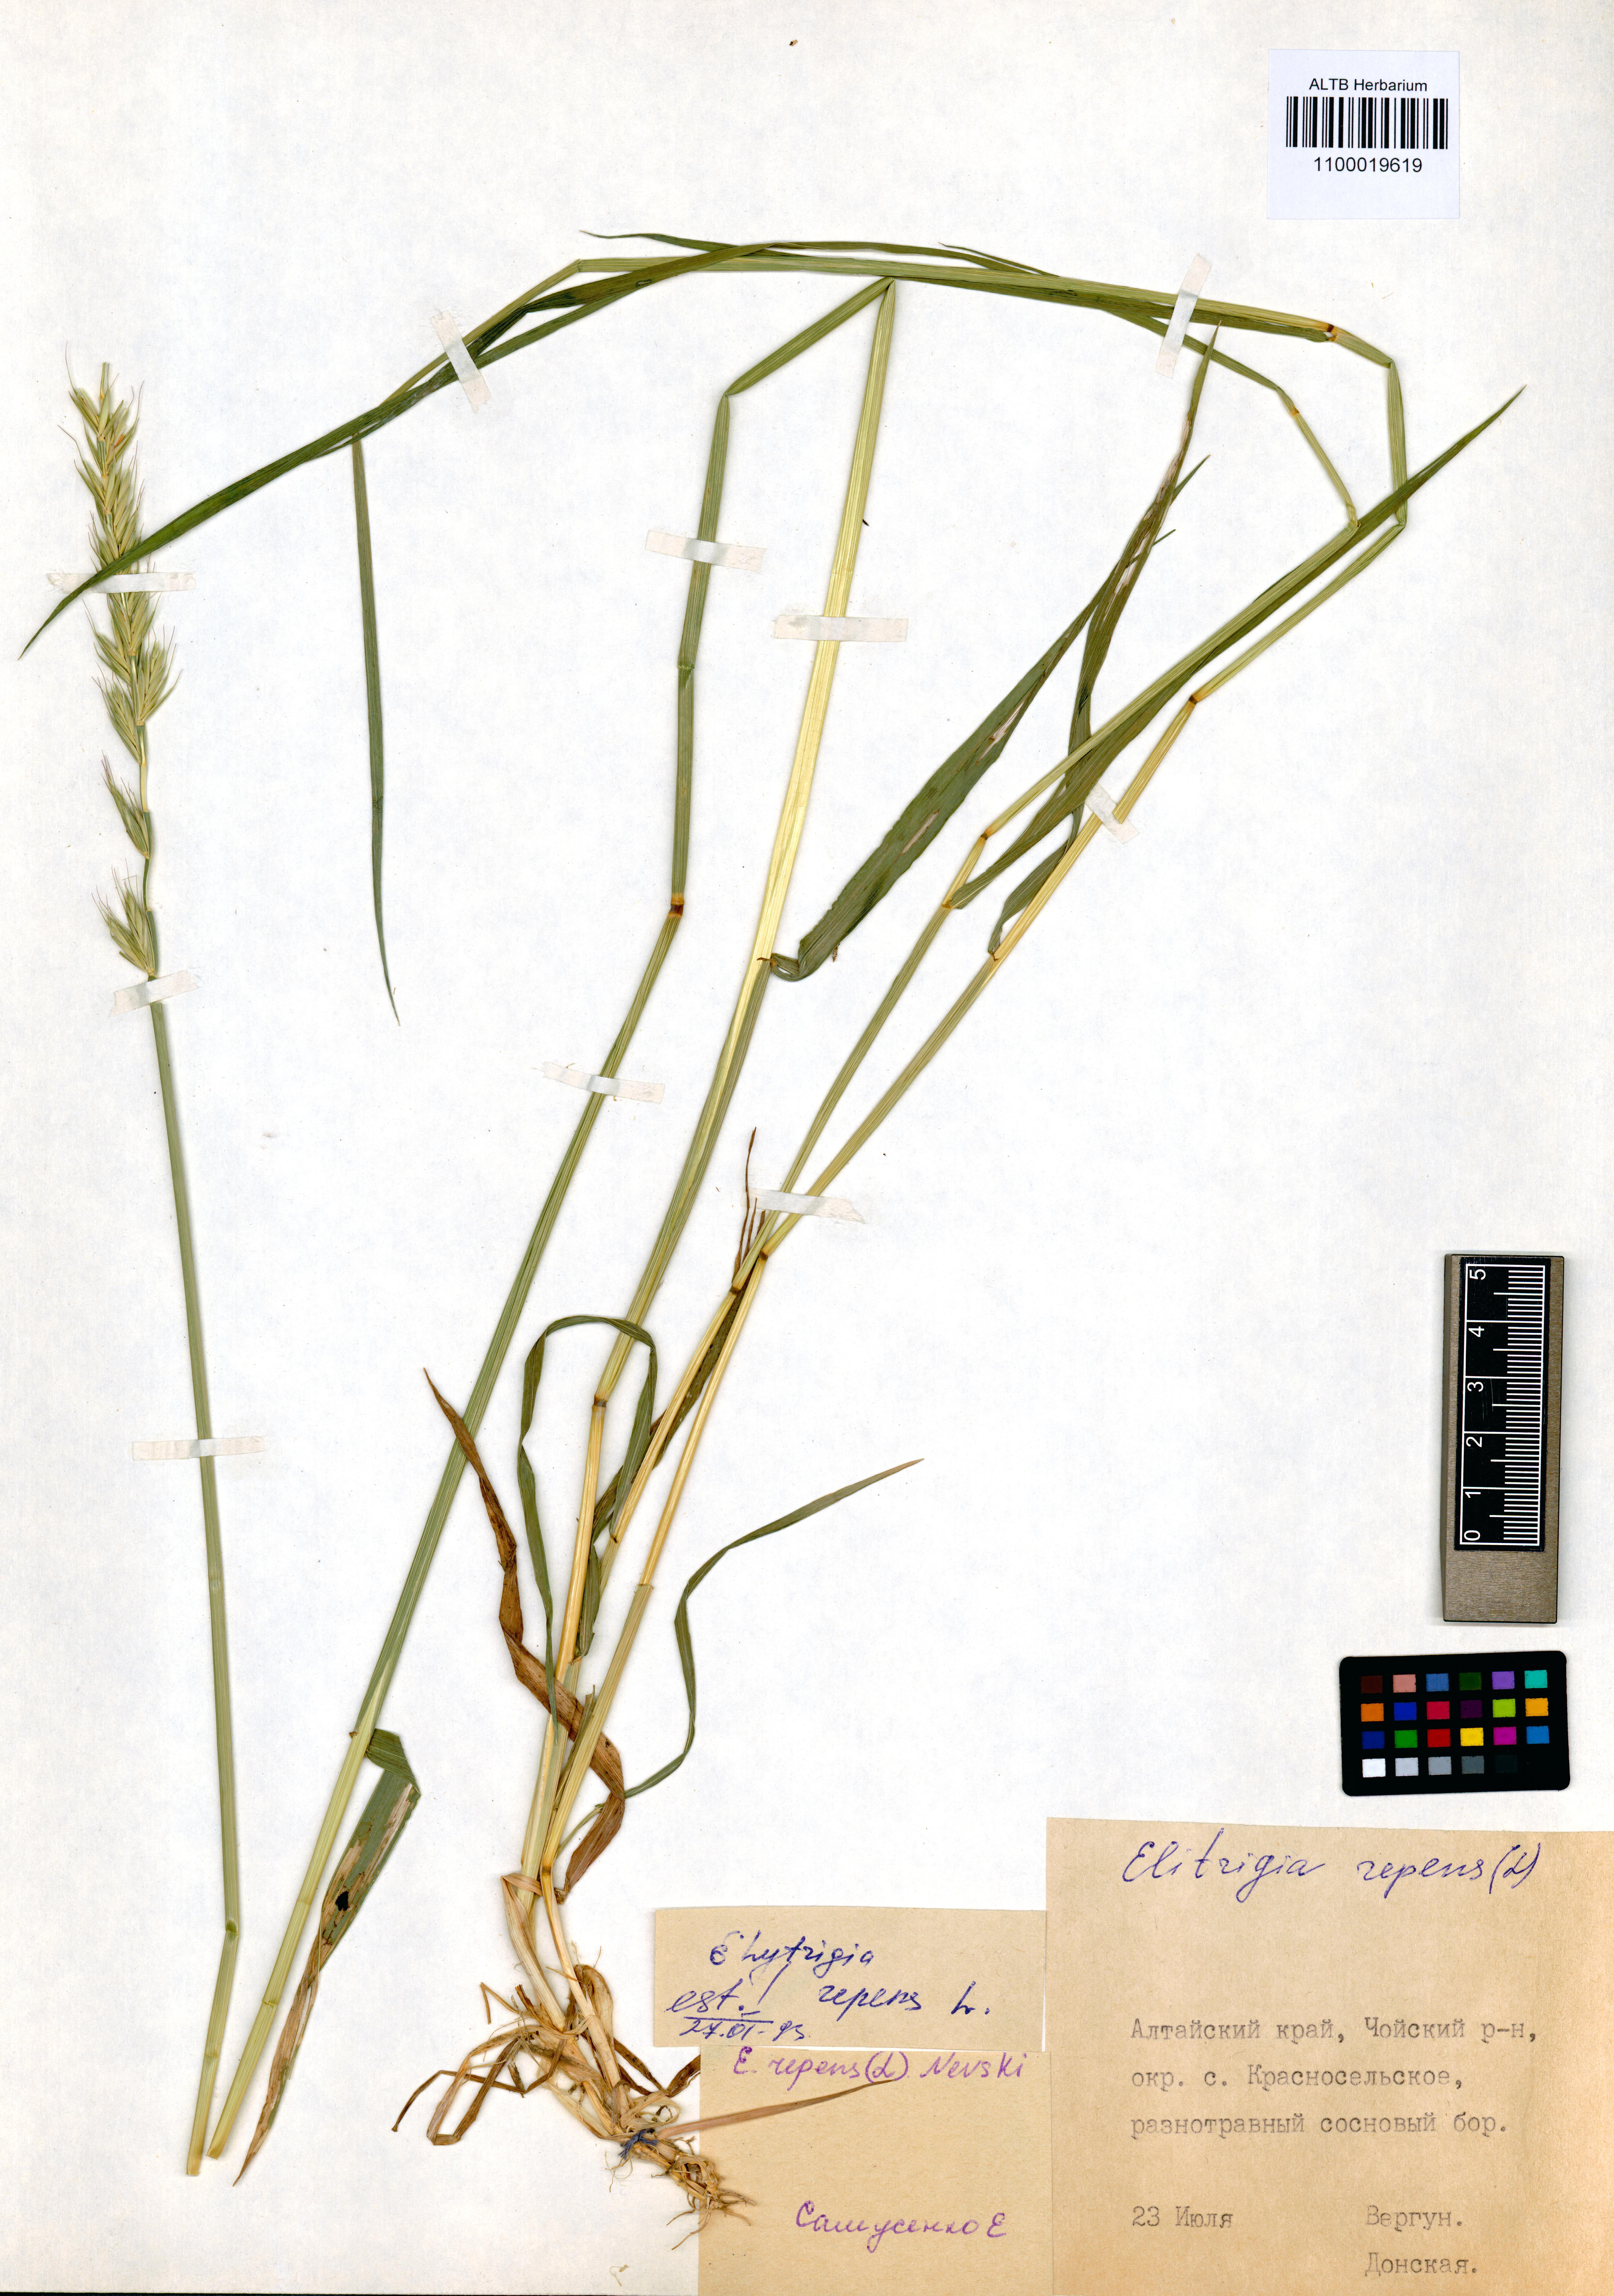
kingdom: Plantae
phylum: Tracheophyta
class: Liliopsida
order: Poales
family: Poaceae
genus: Elymus
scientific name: Elymus repens
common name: Quackgrass
